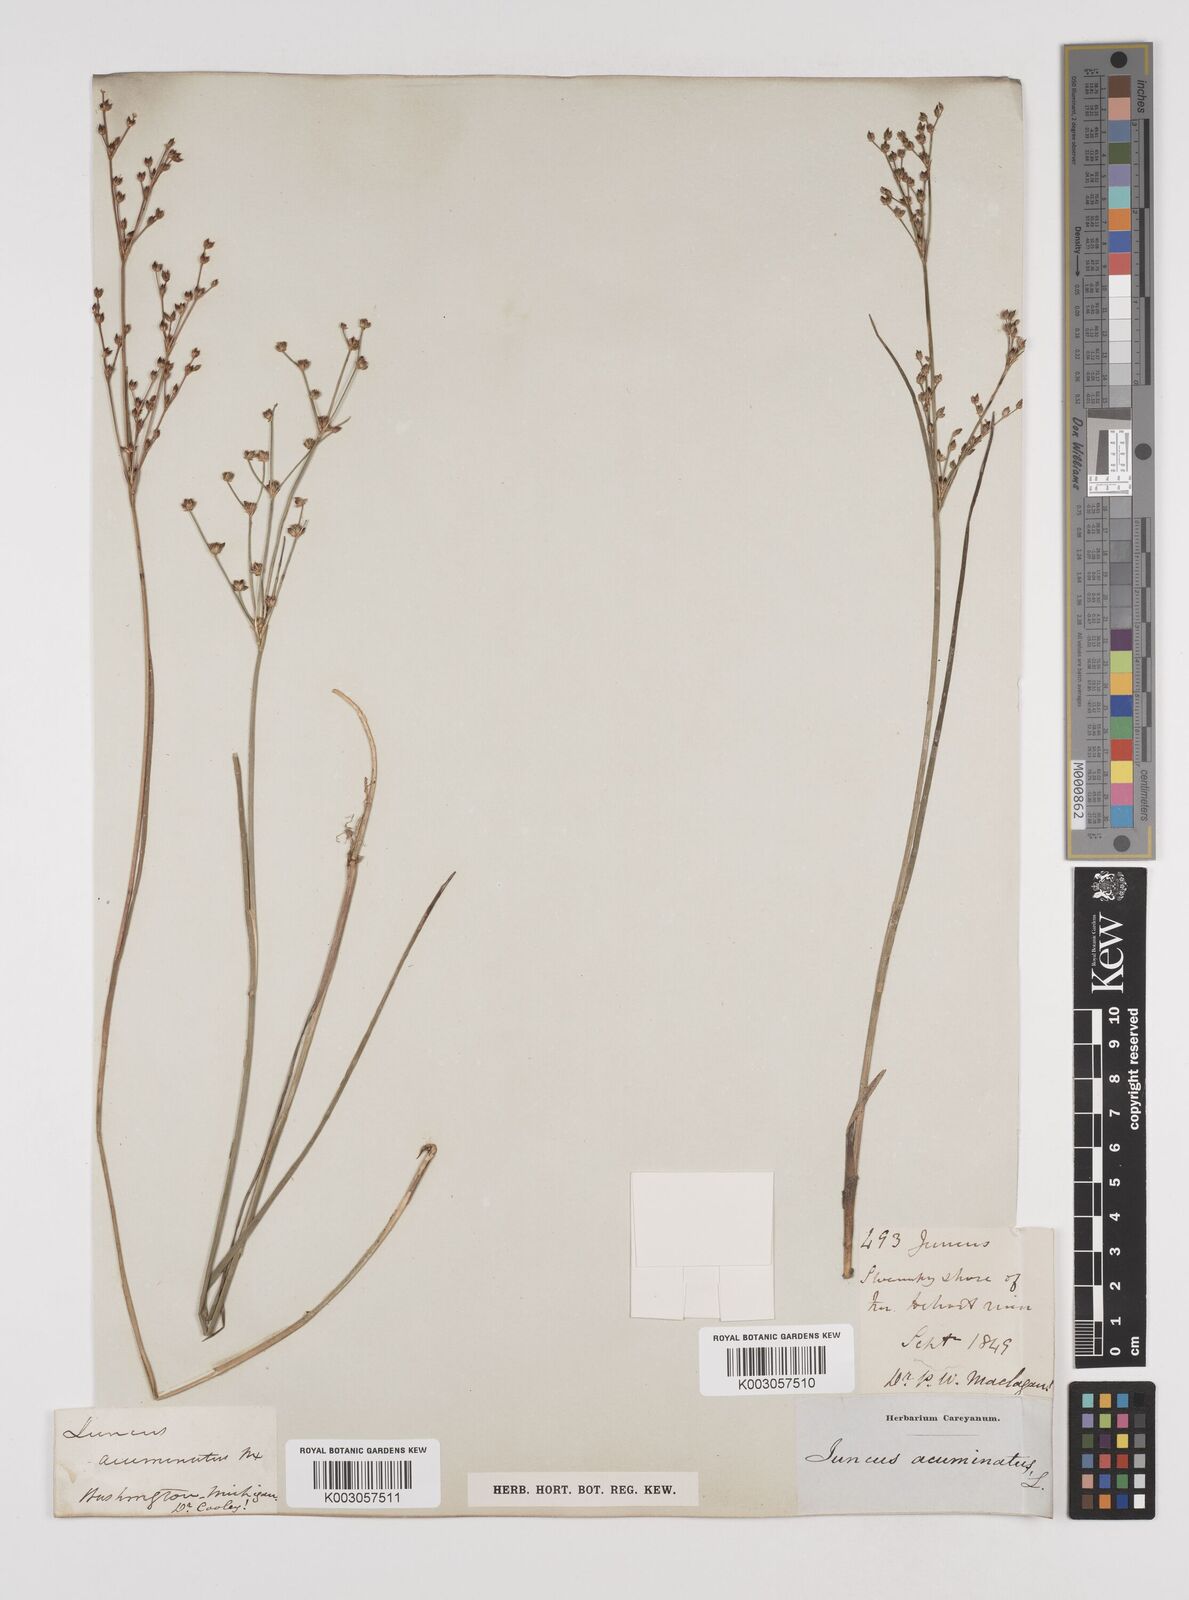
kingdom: Plantae
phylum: Tracheophyta
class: Liliopsida
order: Poales
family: Juncaceae
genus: Juncus
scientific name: Juncus debilis
